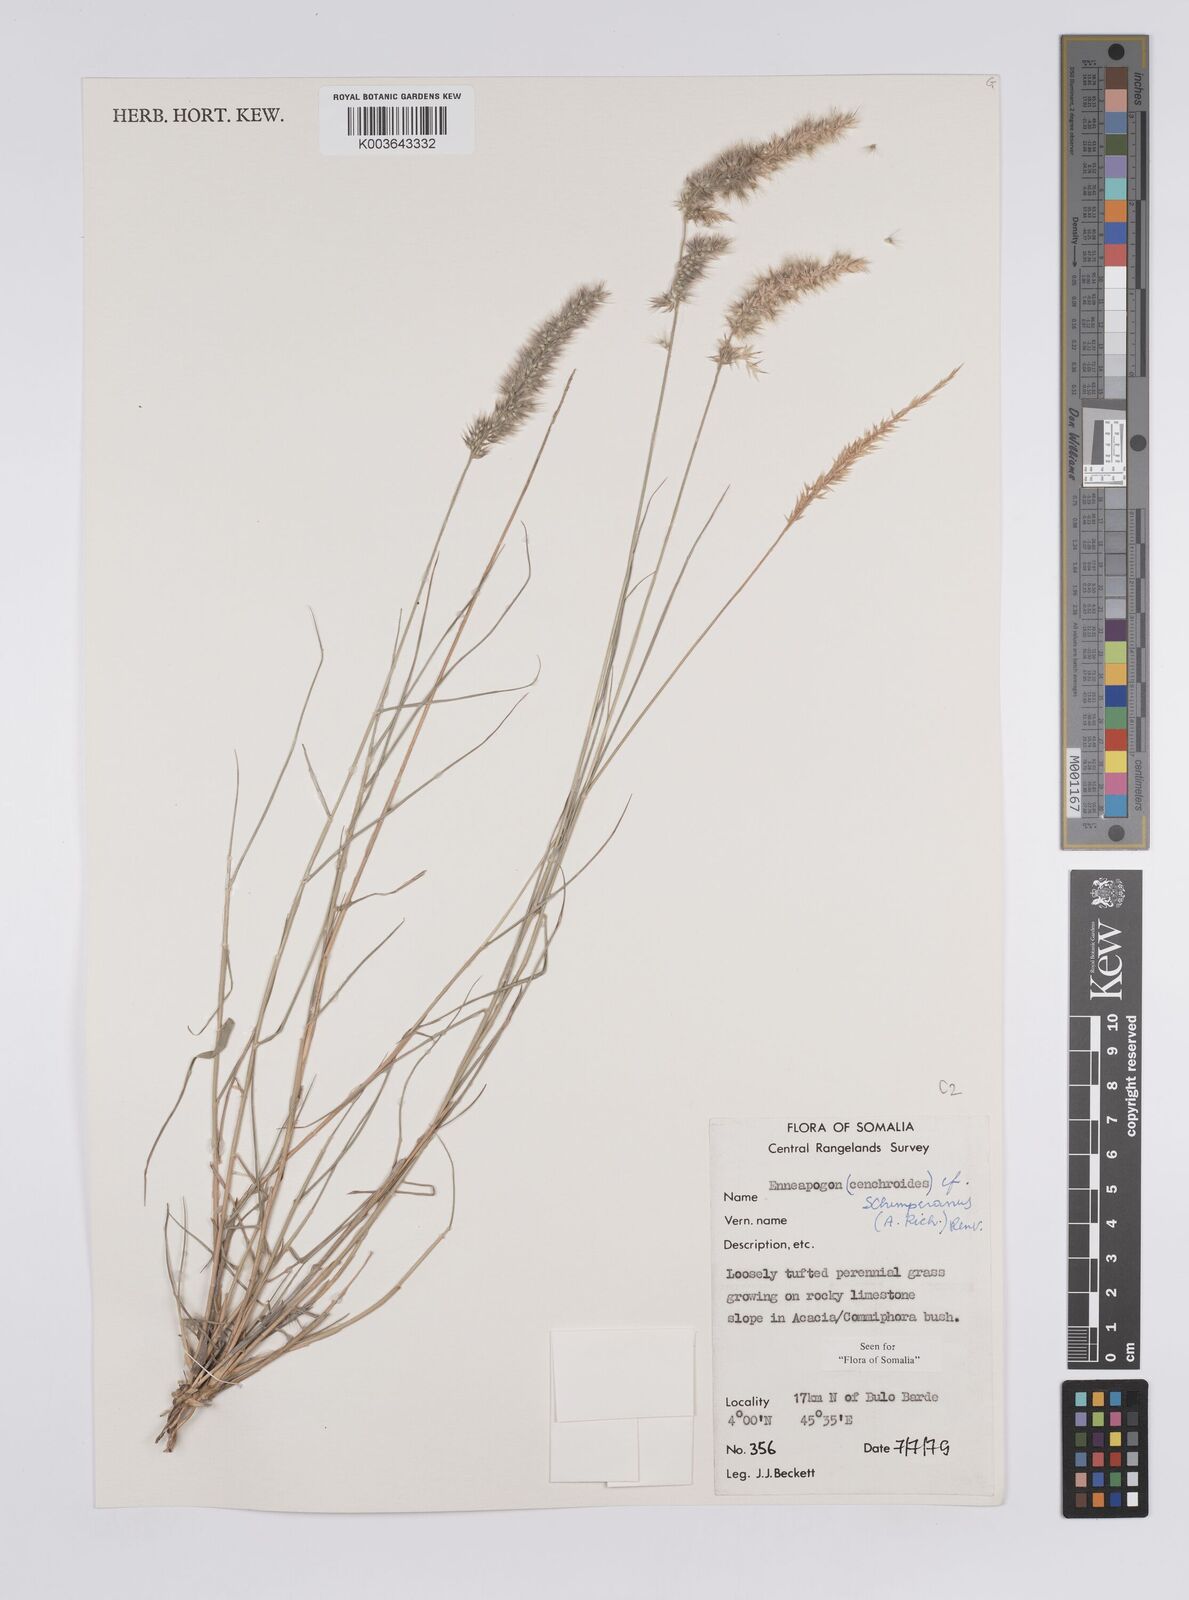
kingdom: Plantae
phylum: Tracheophyta
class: Liliopsida
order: Poales
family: Poaceae
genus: Enneapogon
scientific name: Enneapogon persicus
